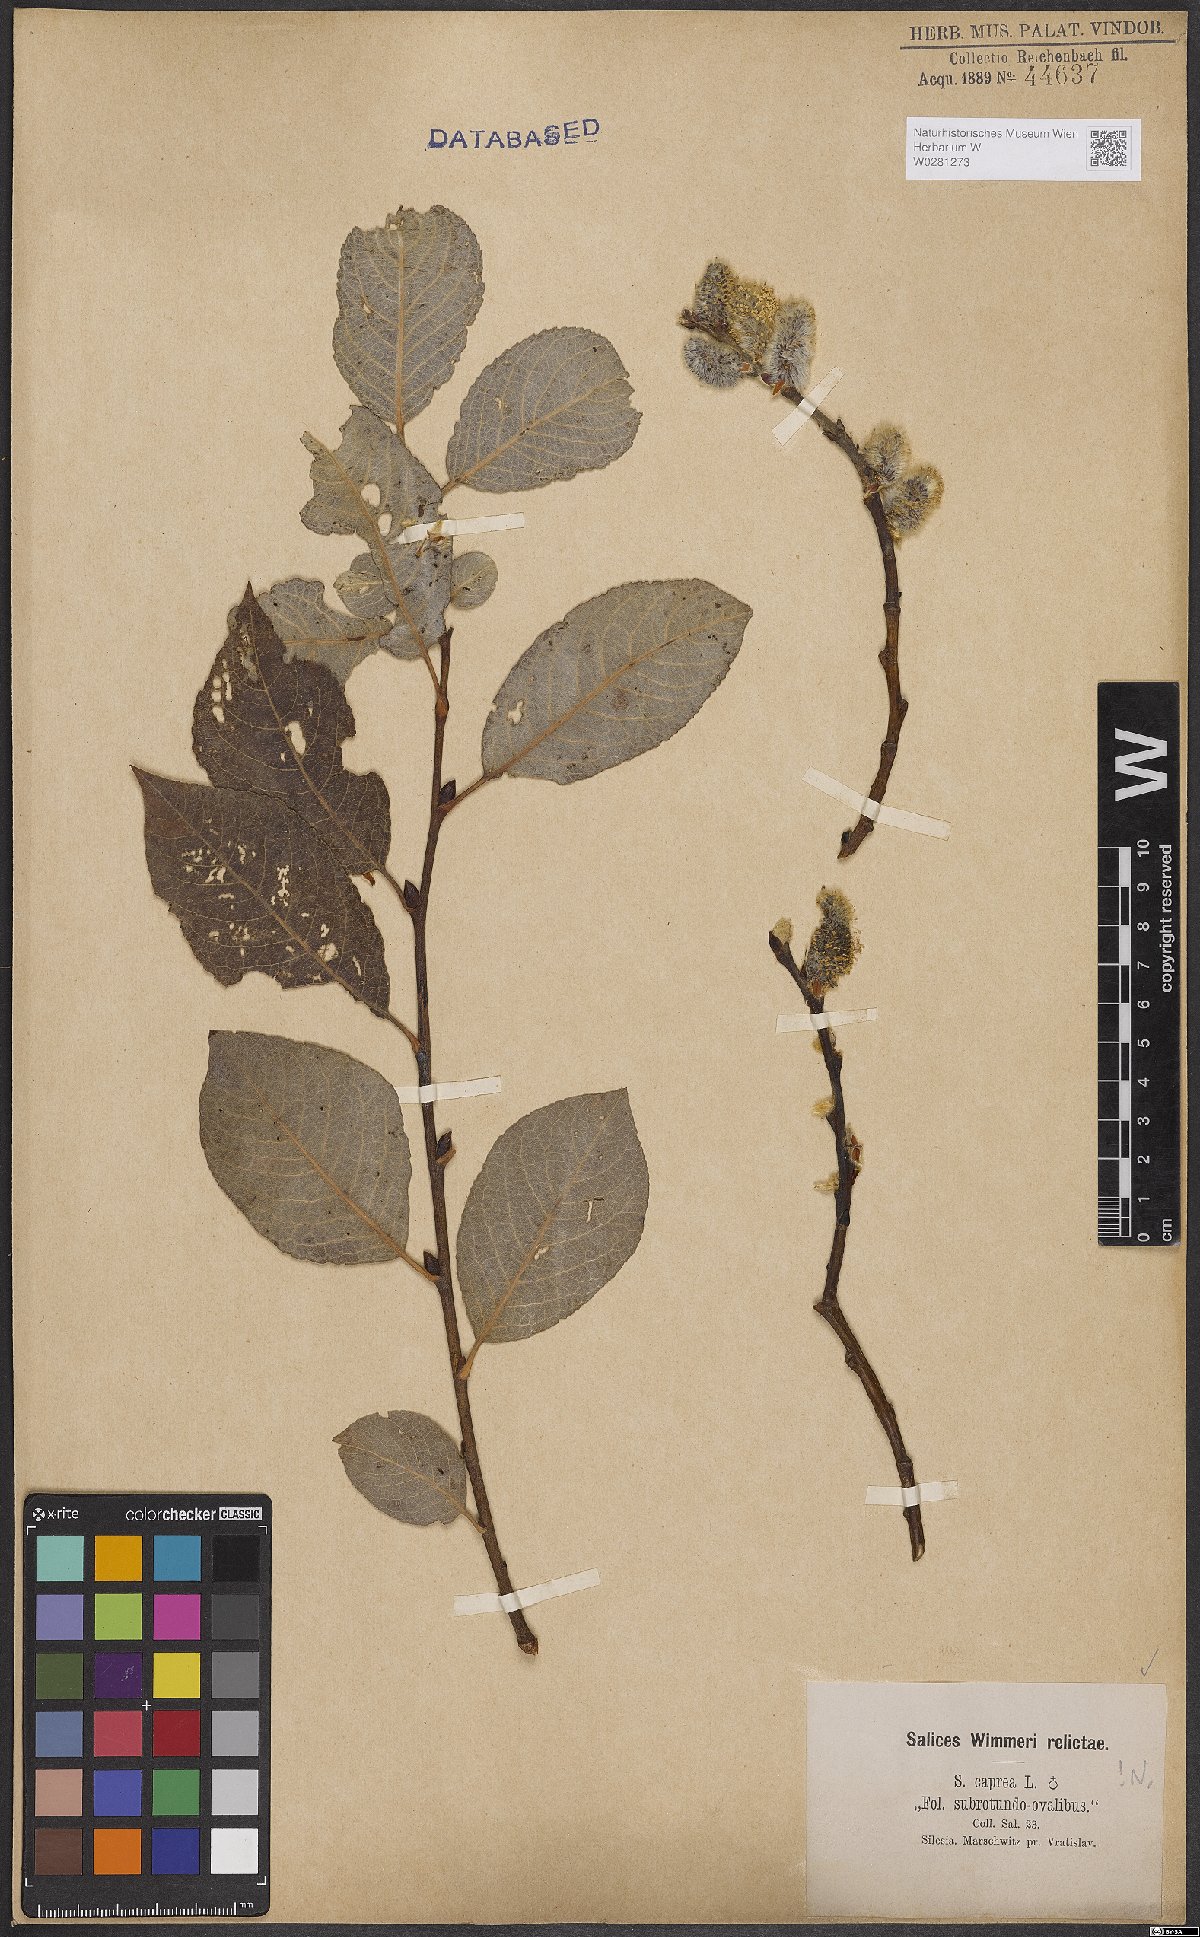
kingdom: Plantae
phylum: Tracheophyta
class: Magnoliopsida
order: Malpighiales
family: Salicaceae
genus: Salix
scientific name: Salix caprea
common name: Goat willow
